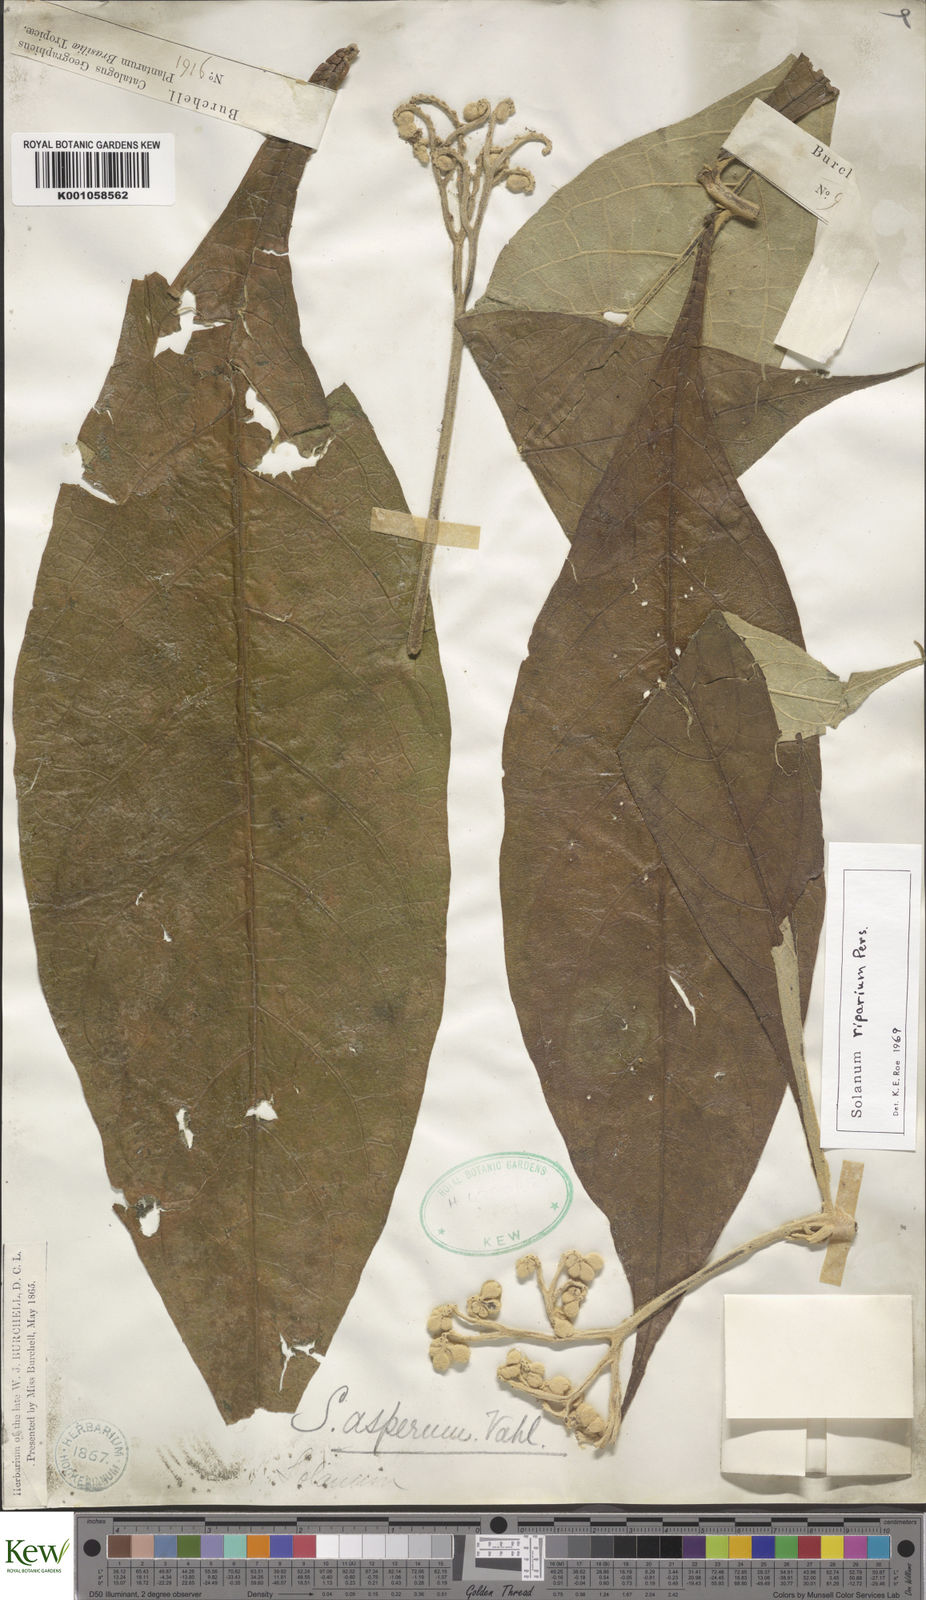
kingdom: Plantae
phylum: Tracheophyta
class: Magnoliopsida
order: Solanales
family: Solanaceae
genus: Solanum
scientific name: Solanum riparium
